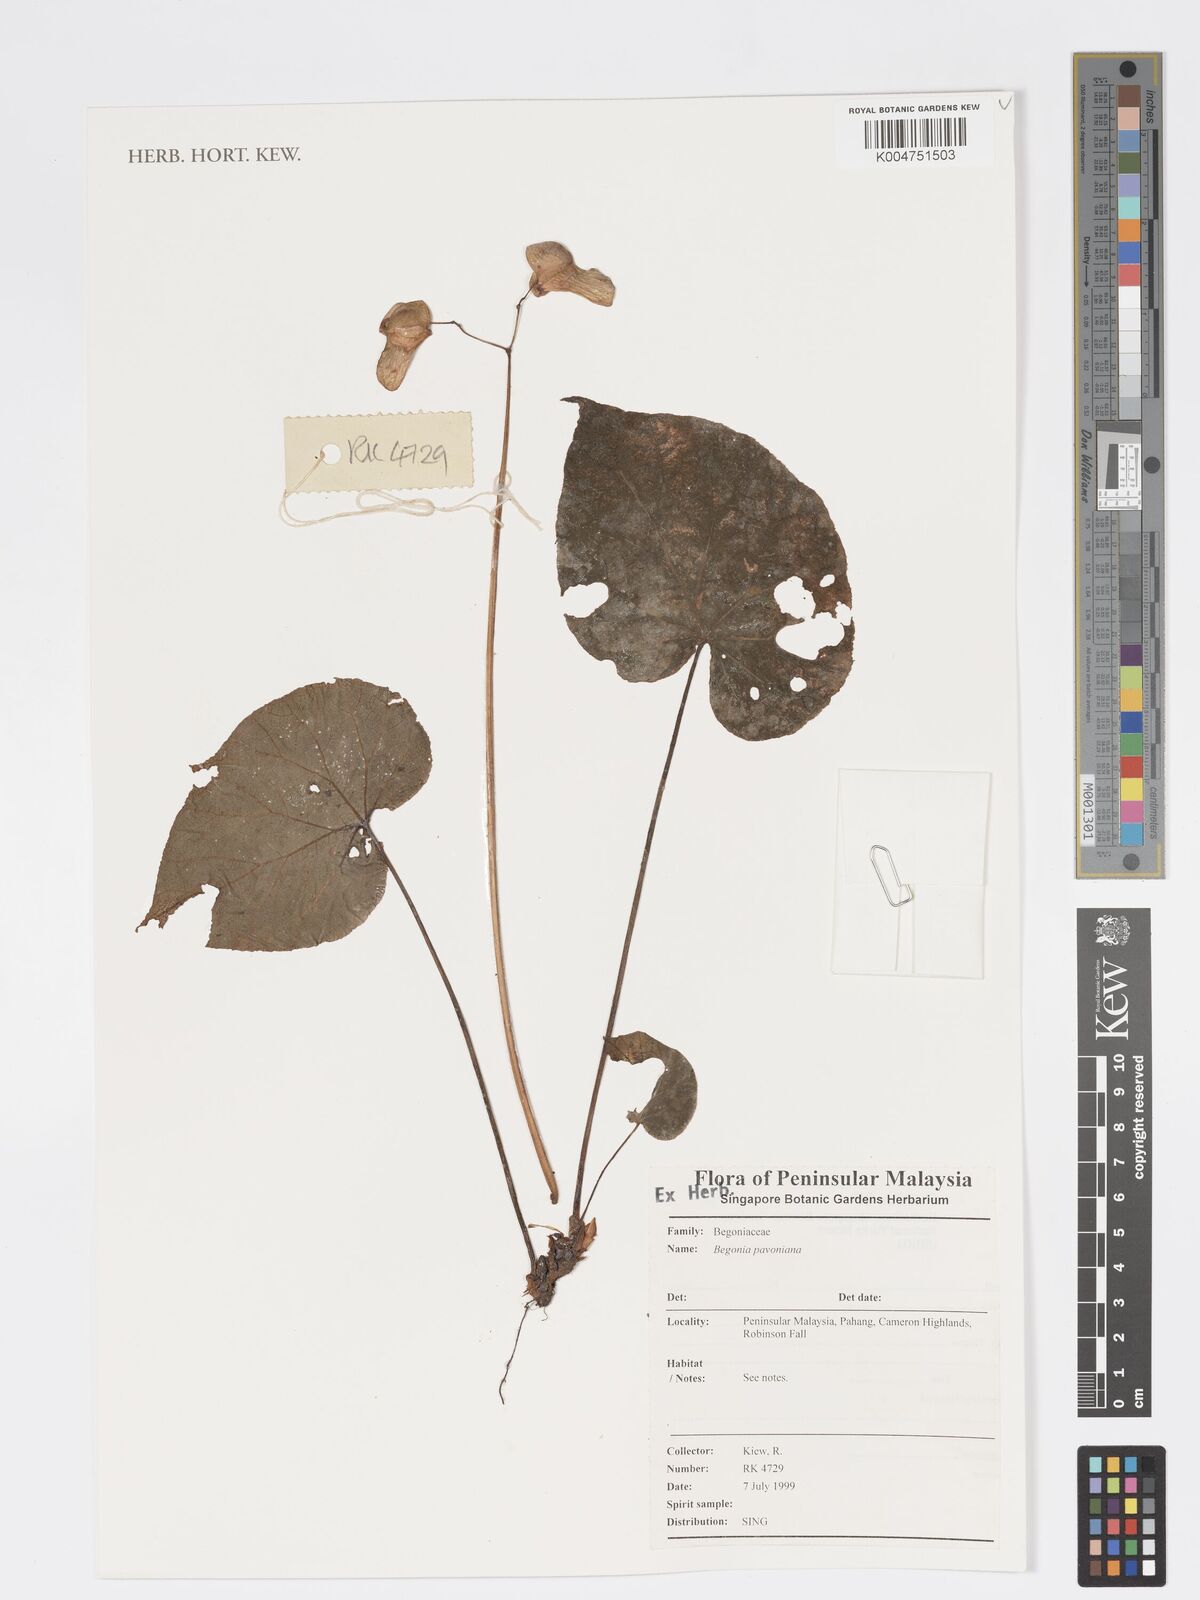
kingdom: Plantae
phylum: Tracheophyta
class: Magnoliopsida
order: Cucurbitales
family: Begoniaceae
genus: Begonia
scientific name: Begonia
